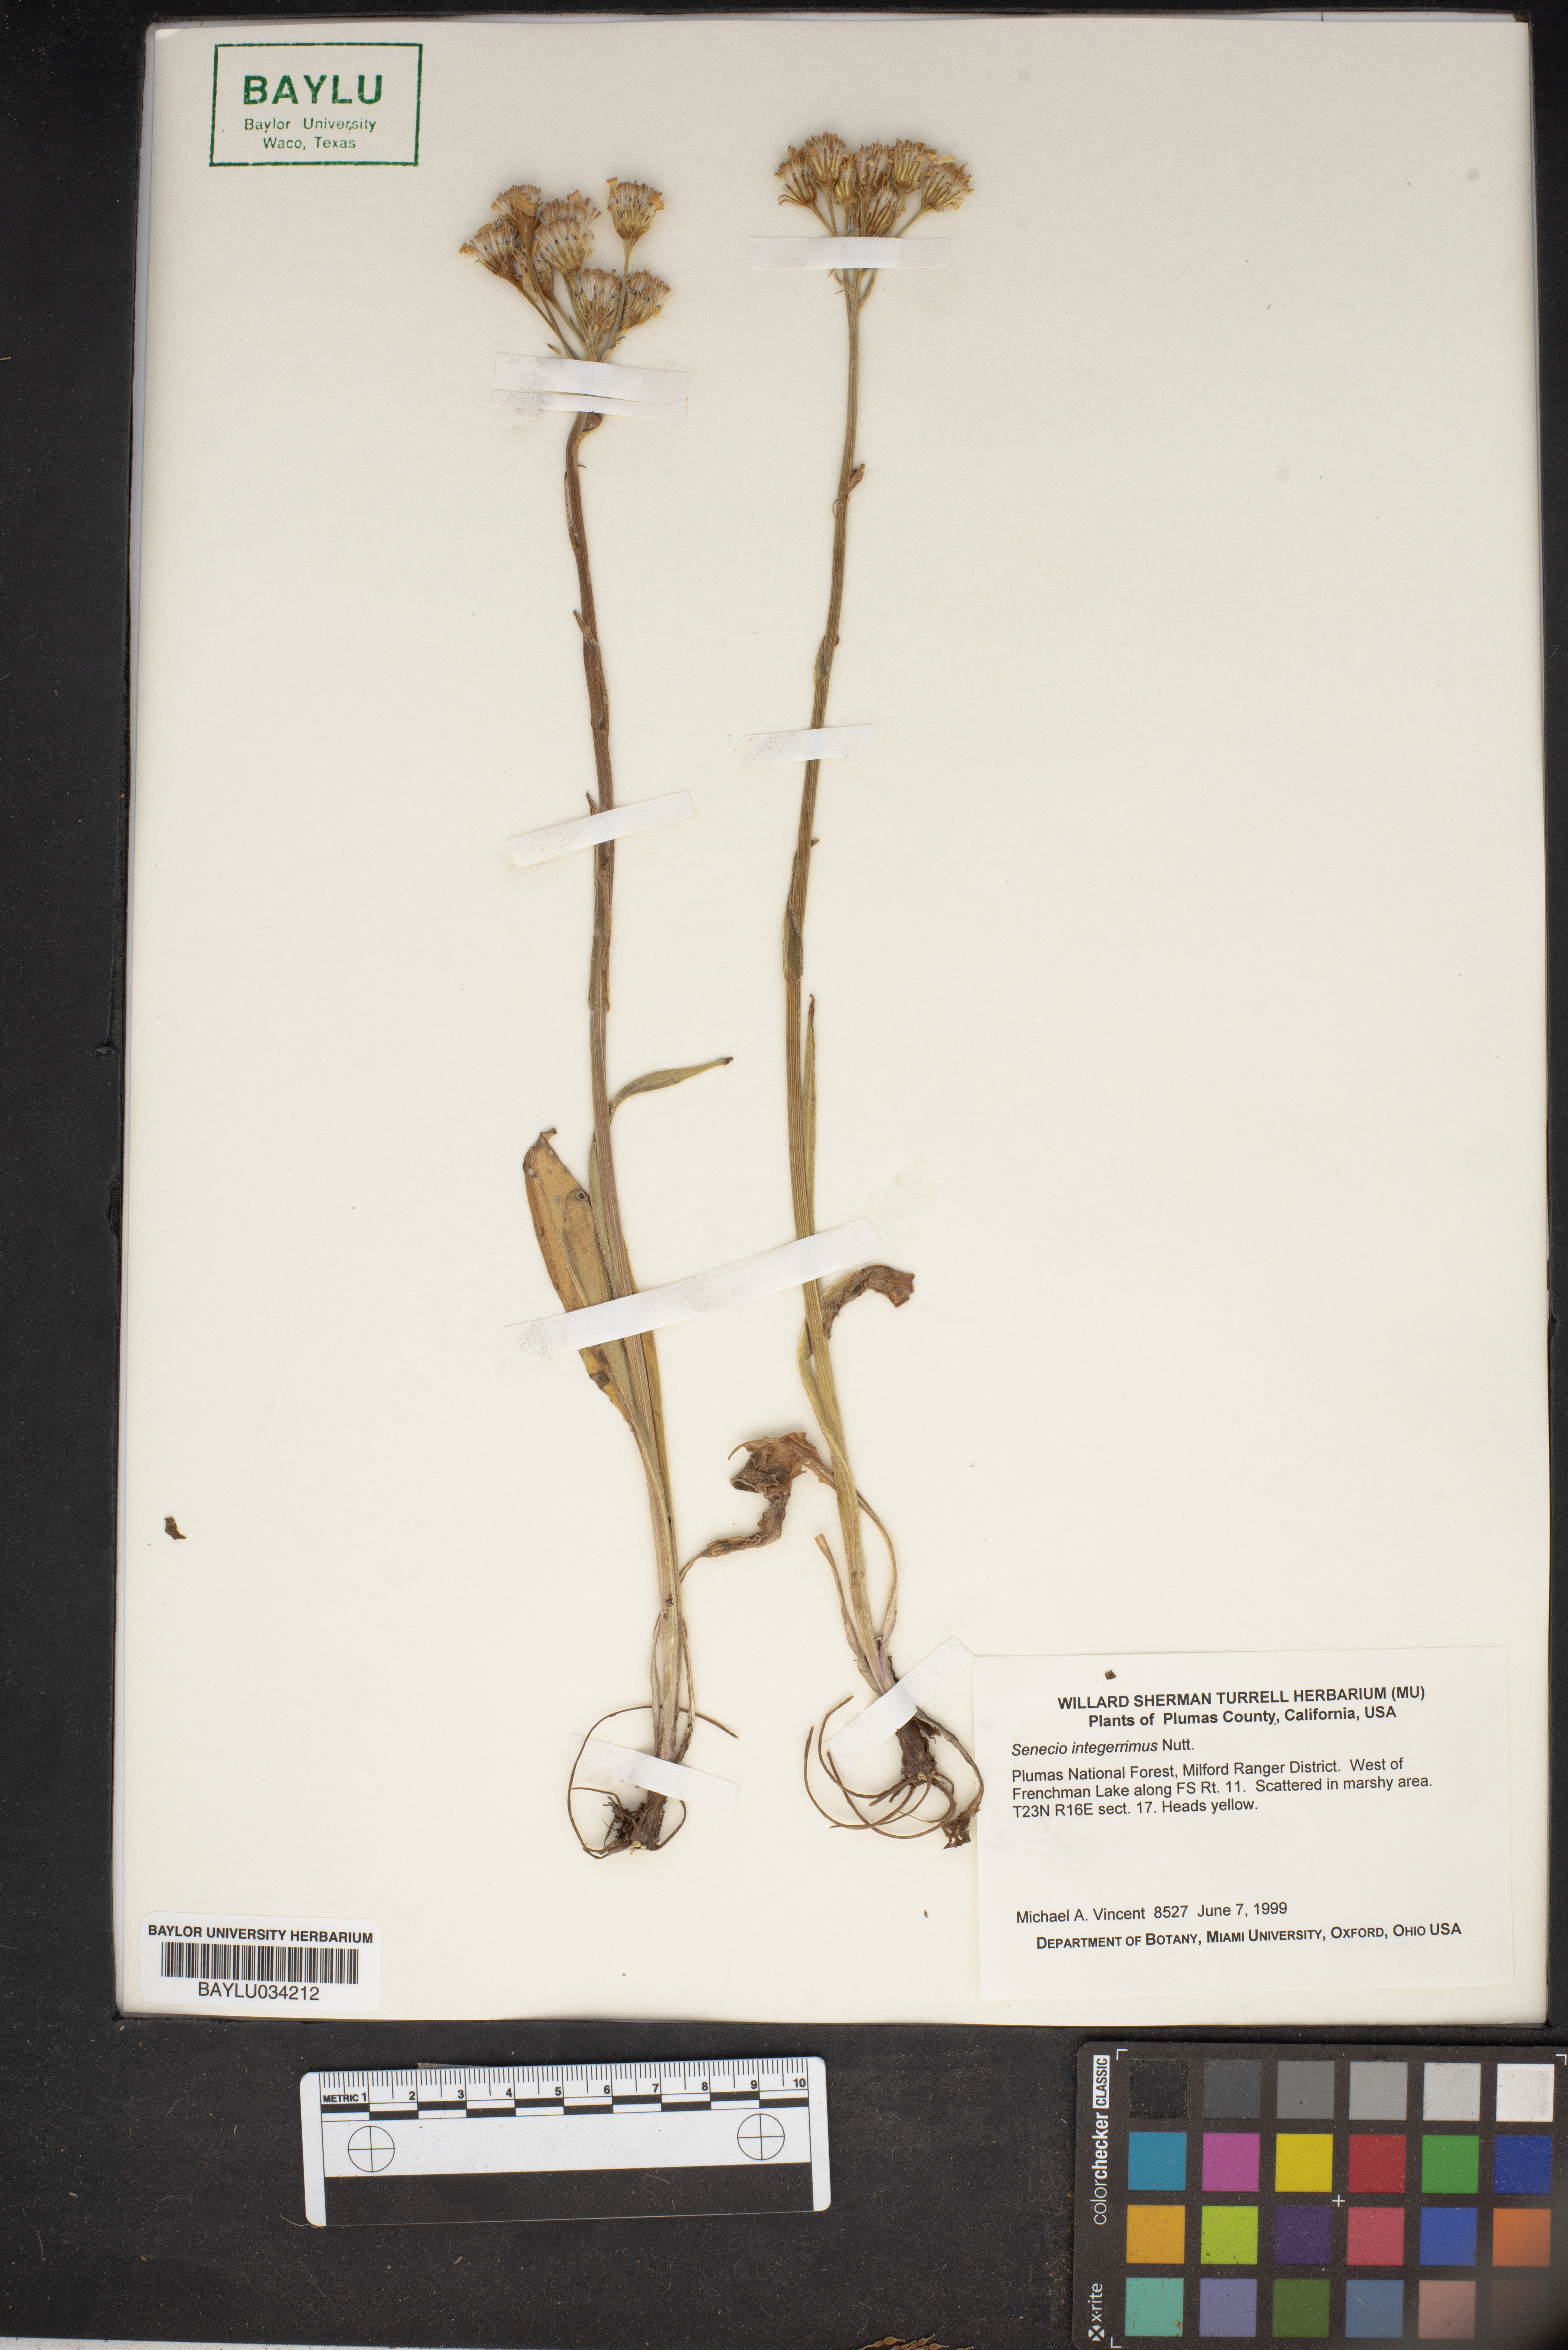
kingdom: Plantae
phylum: Tracheophyta
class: Magnoliopsida
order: Asterales
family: Asteraceae
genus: Senecio
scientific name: Senecio integerrimus
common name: Gaugeplant
